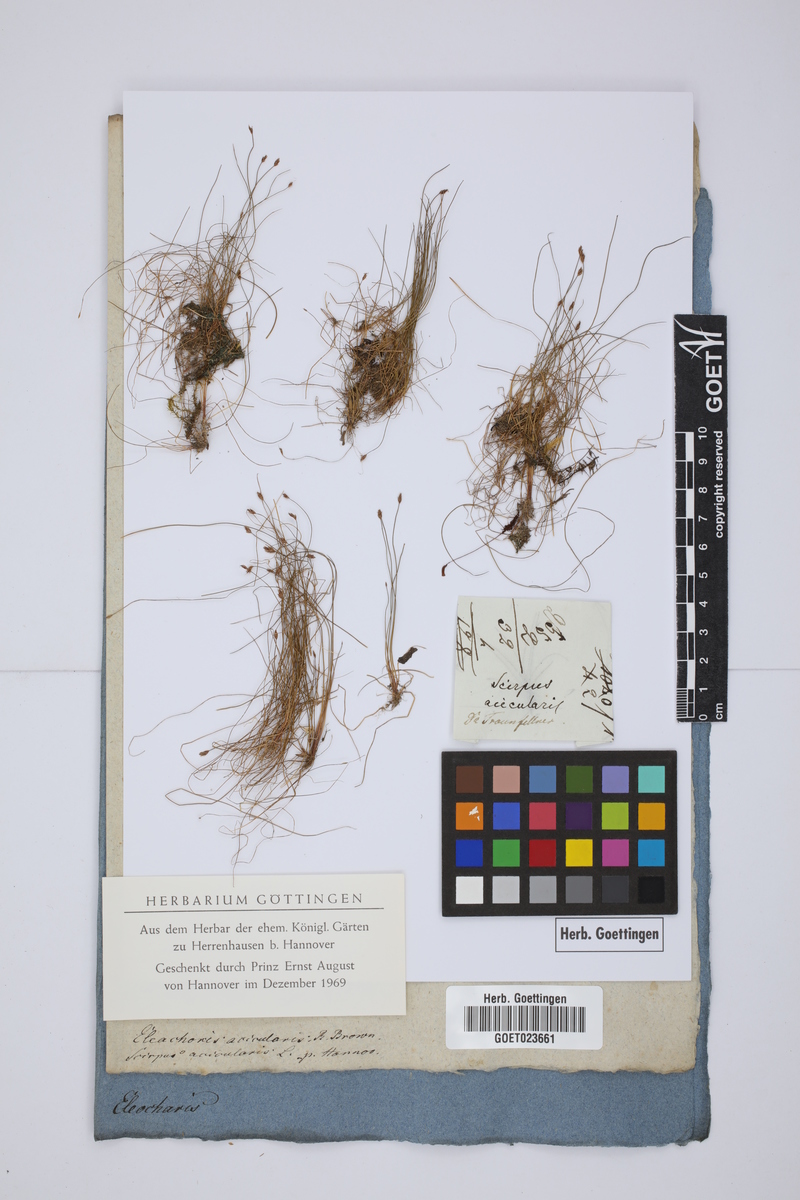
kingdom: Plantae
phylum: Tracheophyta
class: Liliopsida
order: Poales
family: Cyperaceae
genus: Eleocharis
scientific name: Eleocharis acicularis
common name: Needle spike-rush
